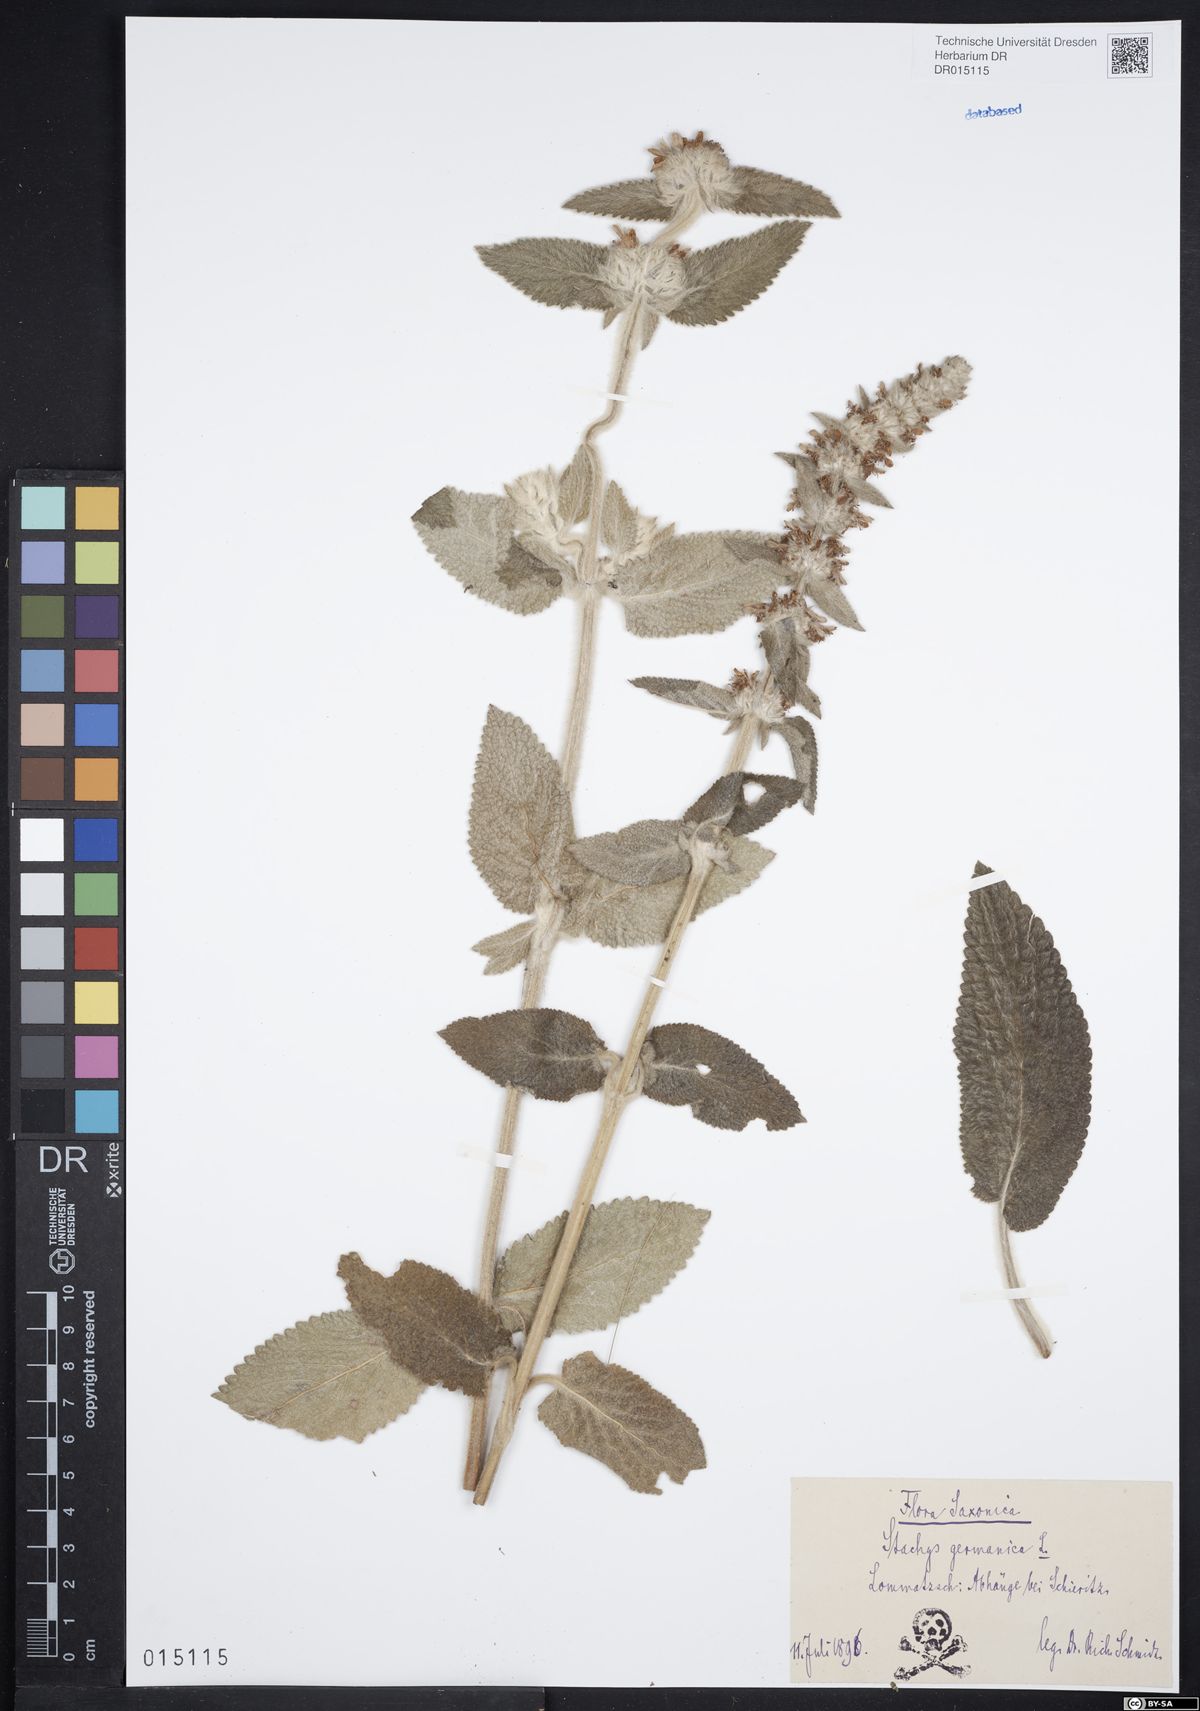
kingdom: Plantae
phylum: Tracheophyta
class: Magnoliopsida
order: Lamiales
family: Lamiaceae
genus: Stachys
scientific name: Stachys germanica
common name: Downy woundwort
